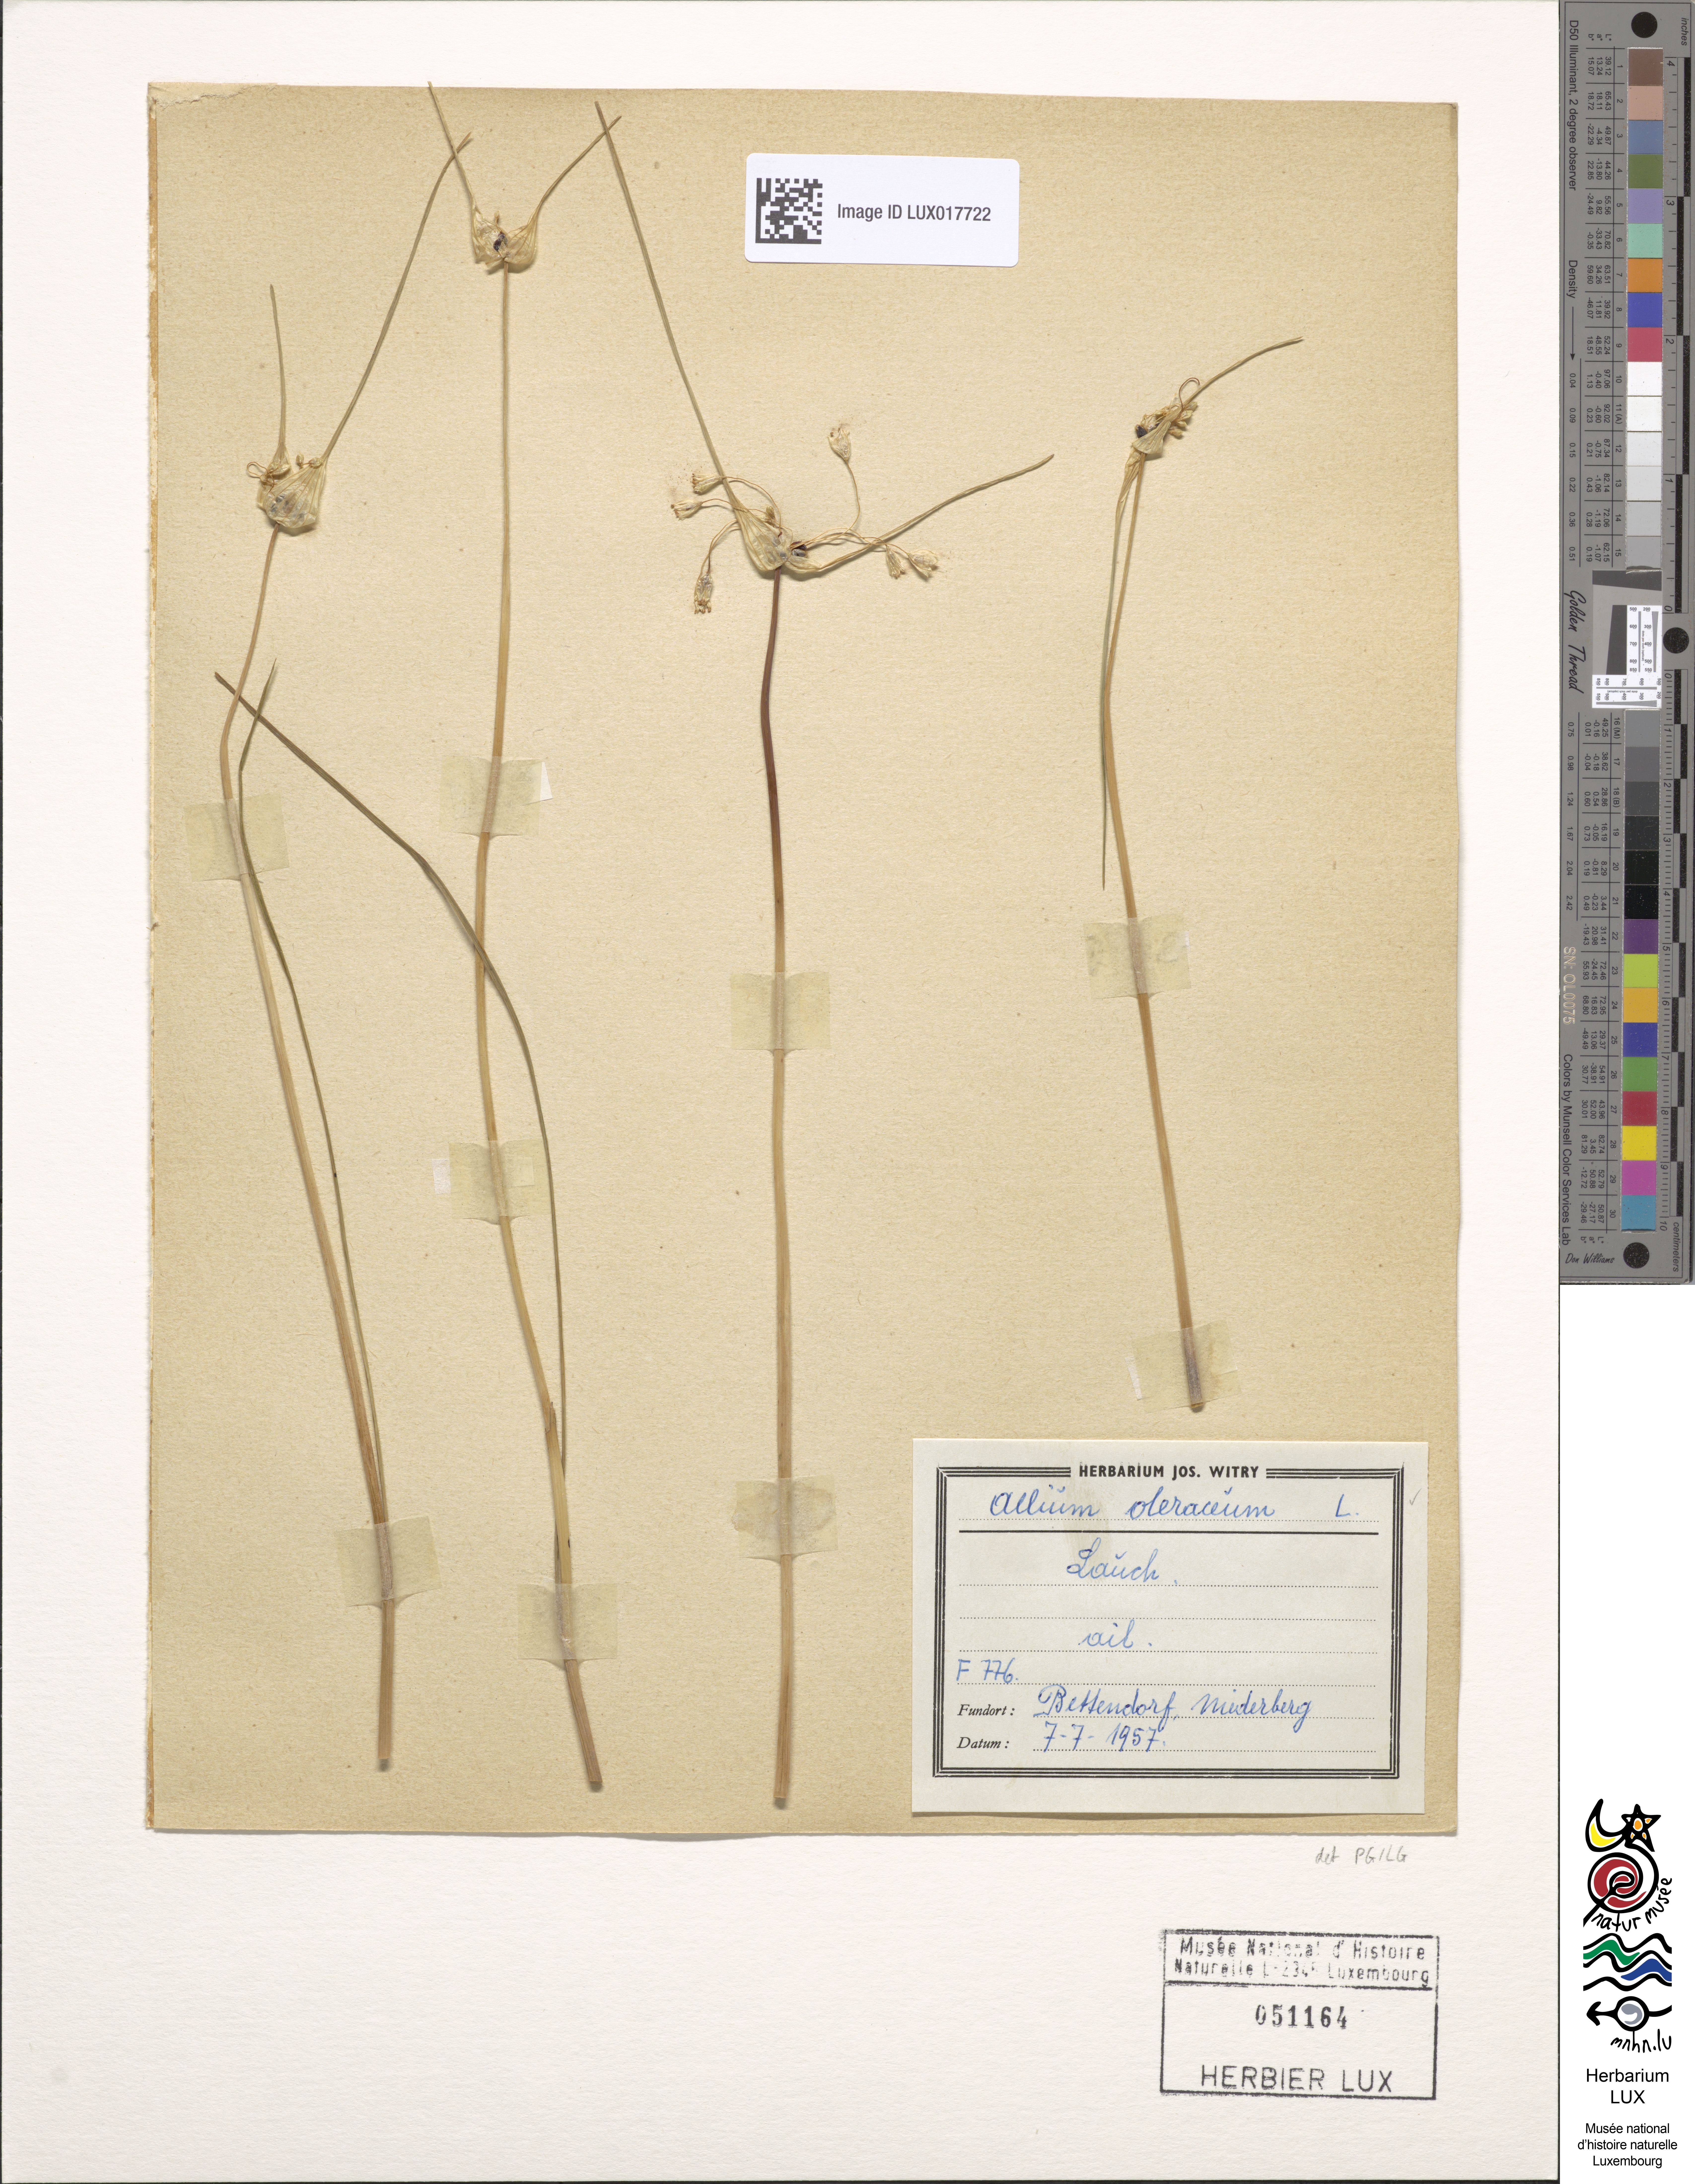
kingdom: Plantae
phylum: Tracheophyta
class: Liliopsida
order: Asparagales
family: Amaryllidaceae
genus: Allium
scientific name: Allium oleraceum
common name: Field garlic
